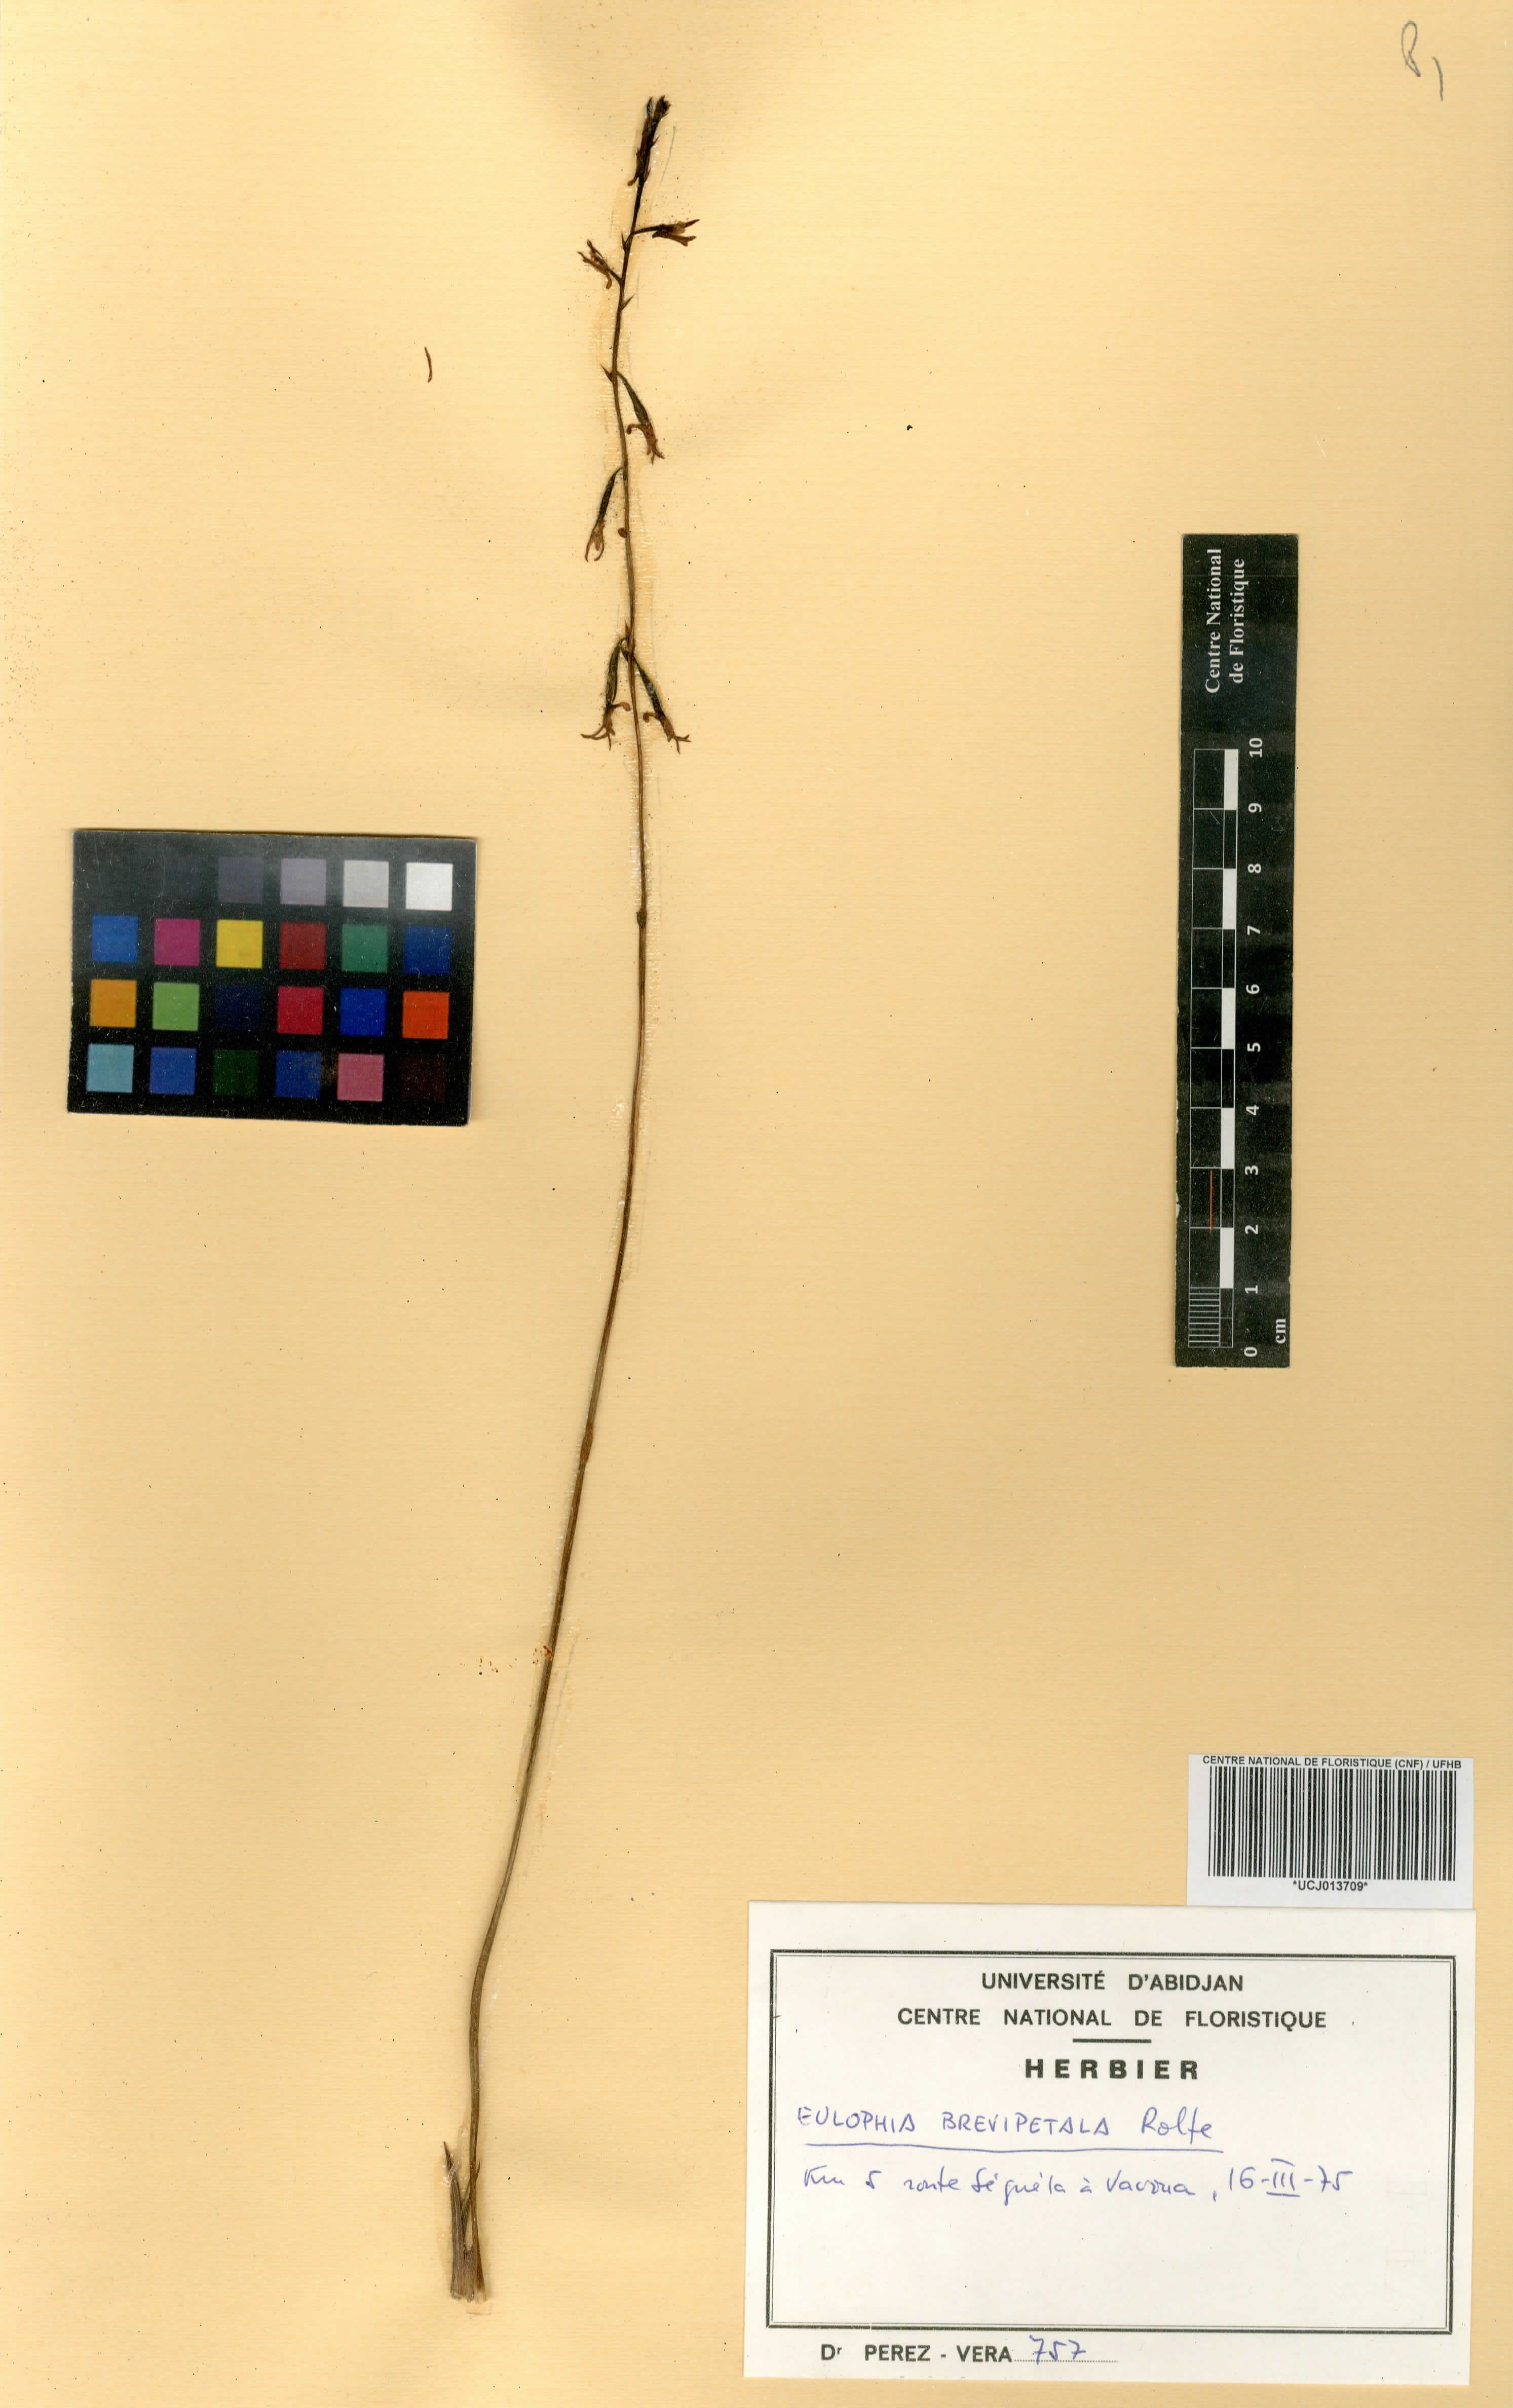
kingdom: Plantae
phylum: Tracheophyta
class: Liliopsida
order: Asparagales
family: Orchidaceae
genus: Eulophia
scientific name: Eulophia monile
